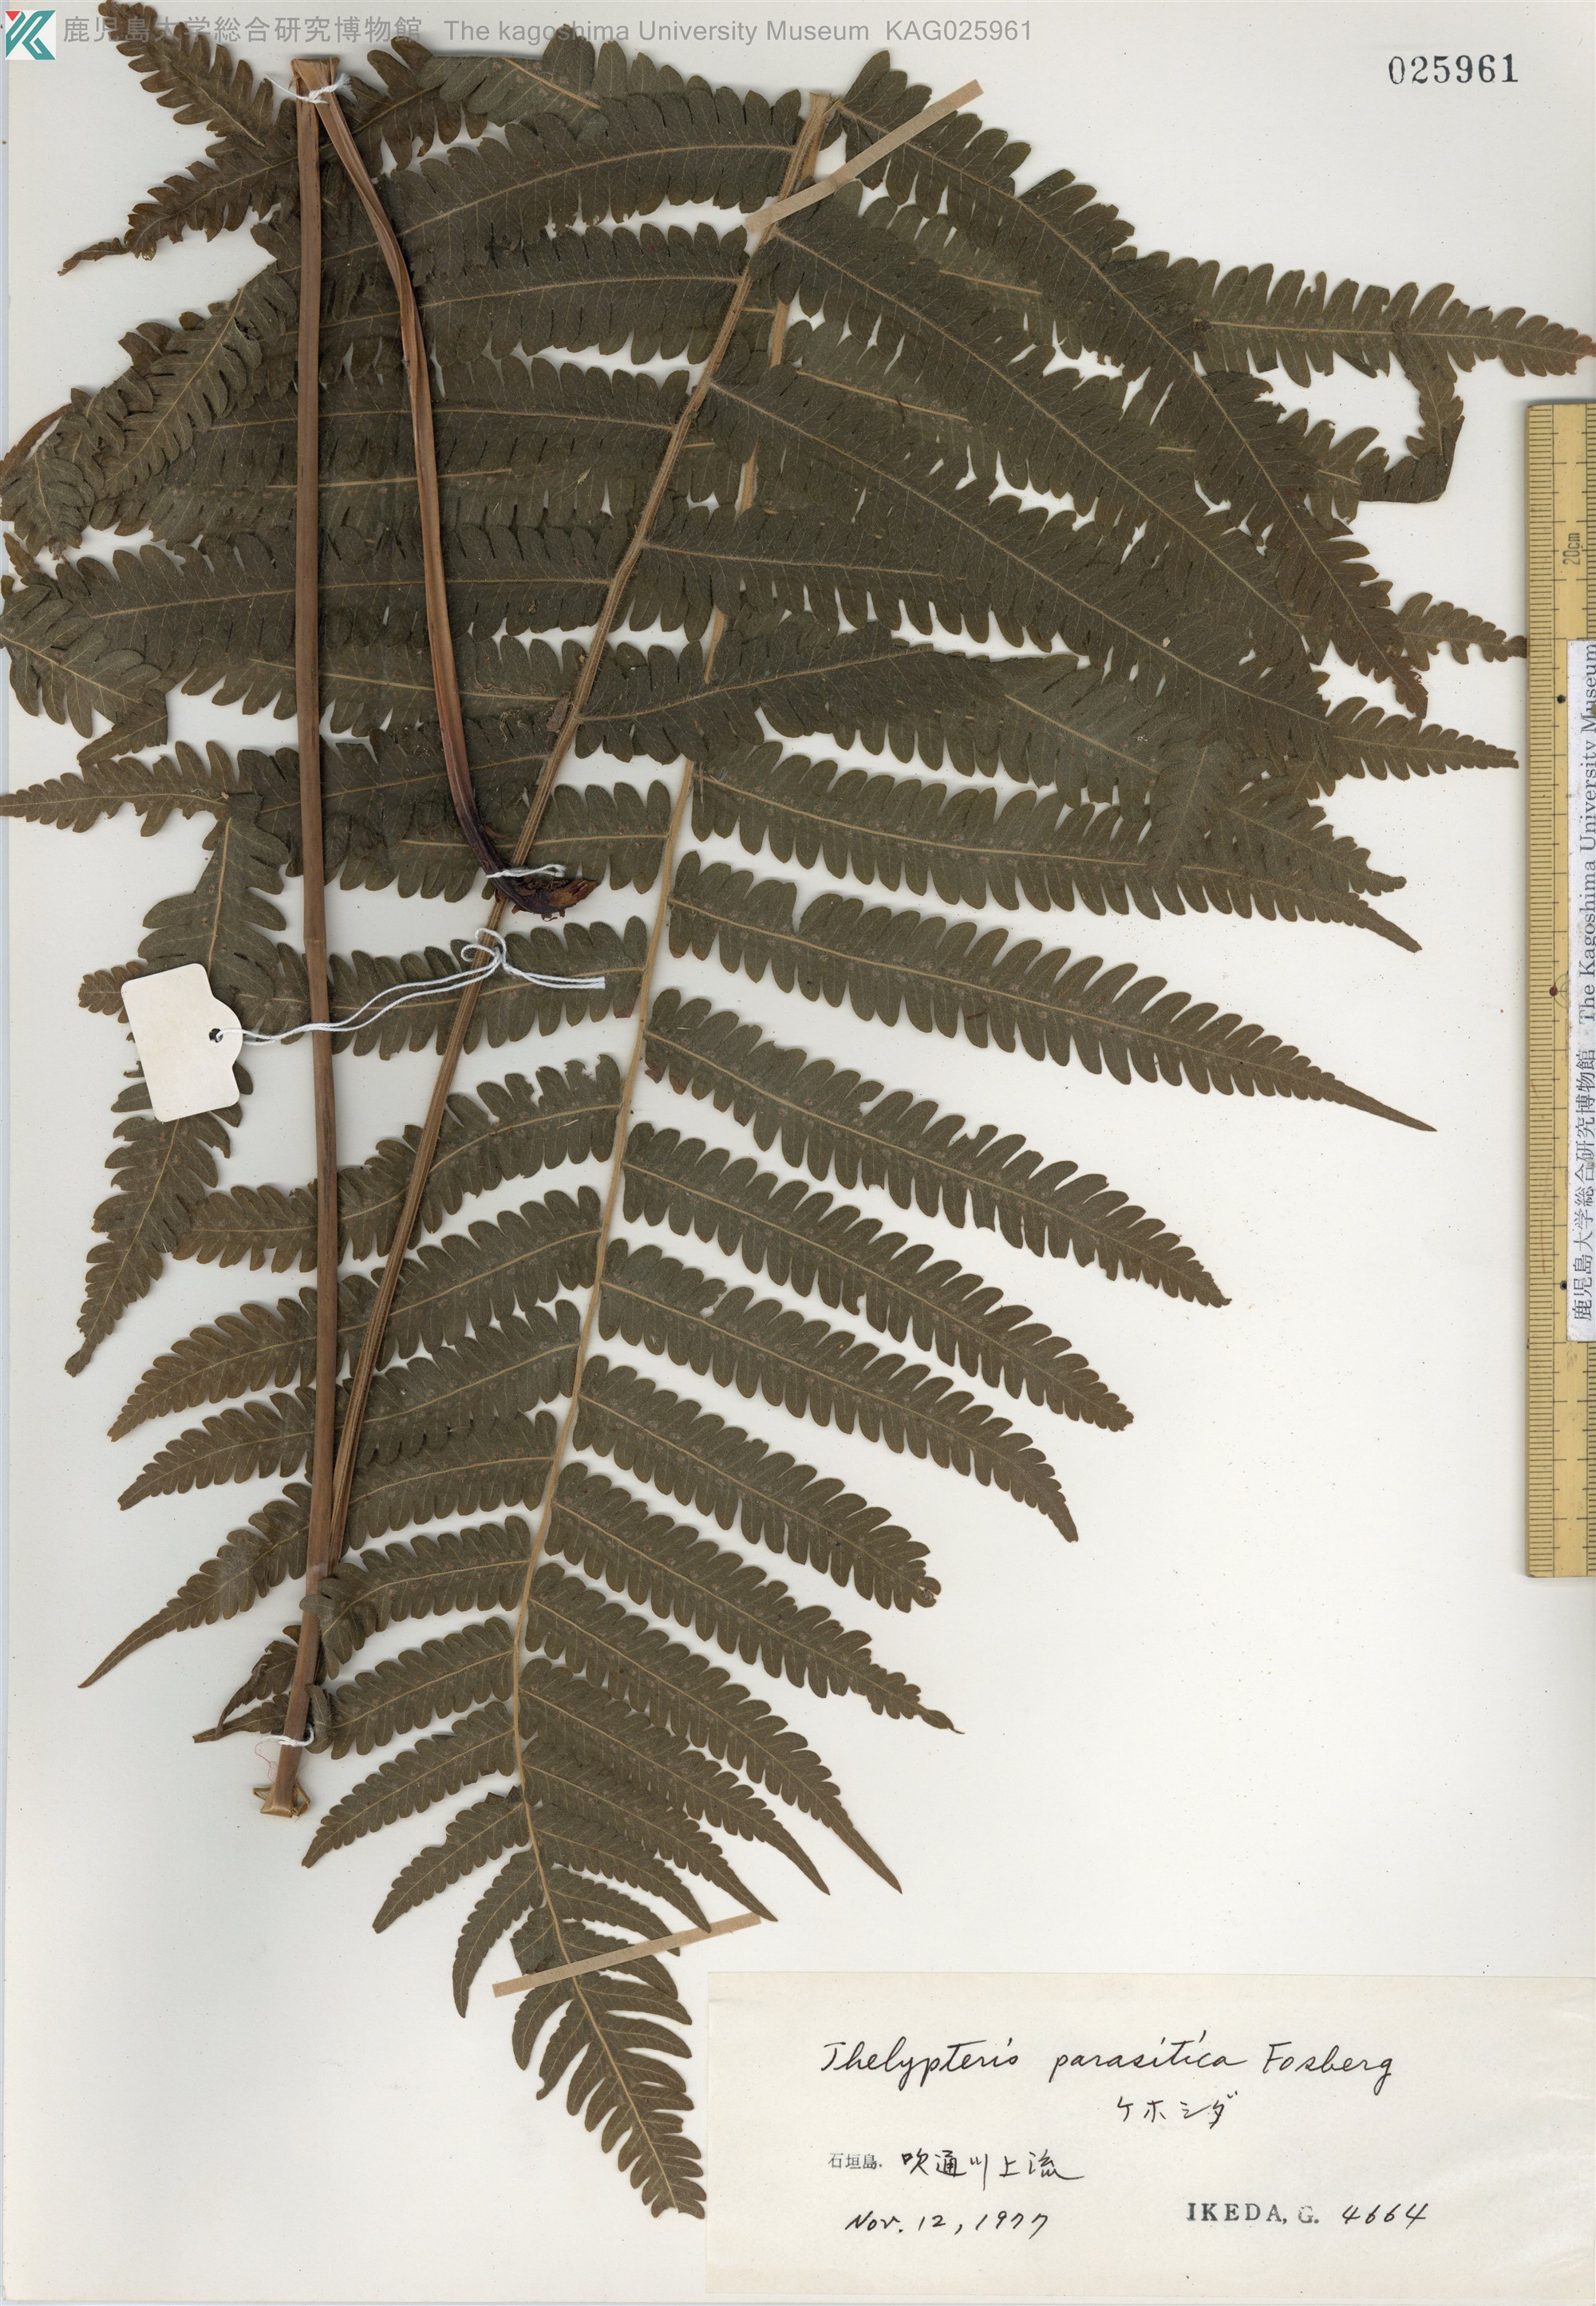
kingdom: Plantae
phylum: Tracheophyta
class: Polypodiopsida
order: Polypodiales
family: Thelypteridaceae
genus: Christella
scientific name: Christella parasitica
